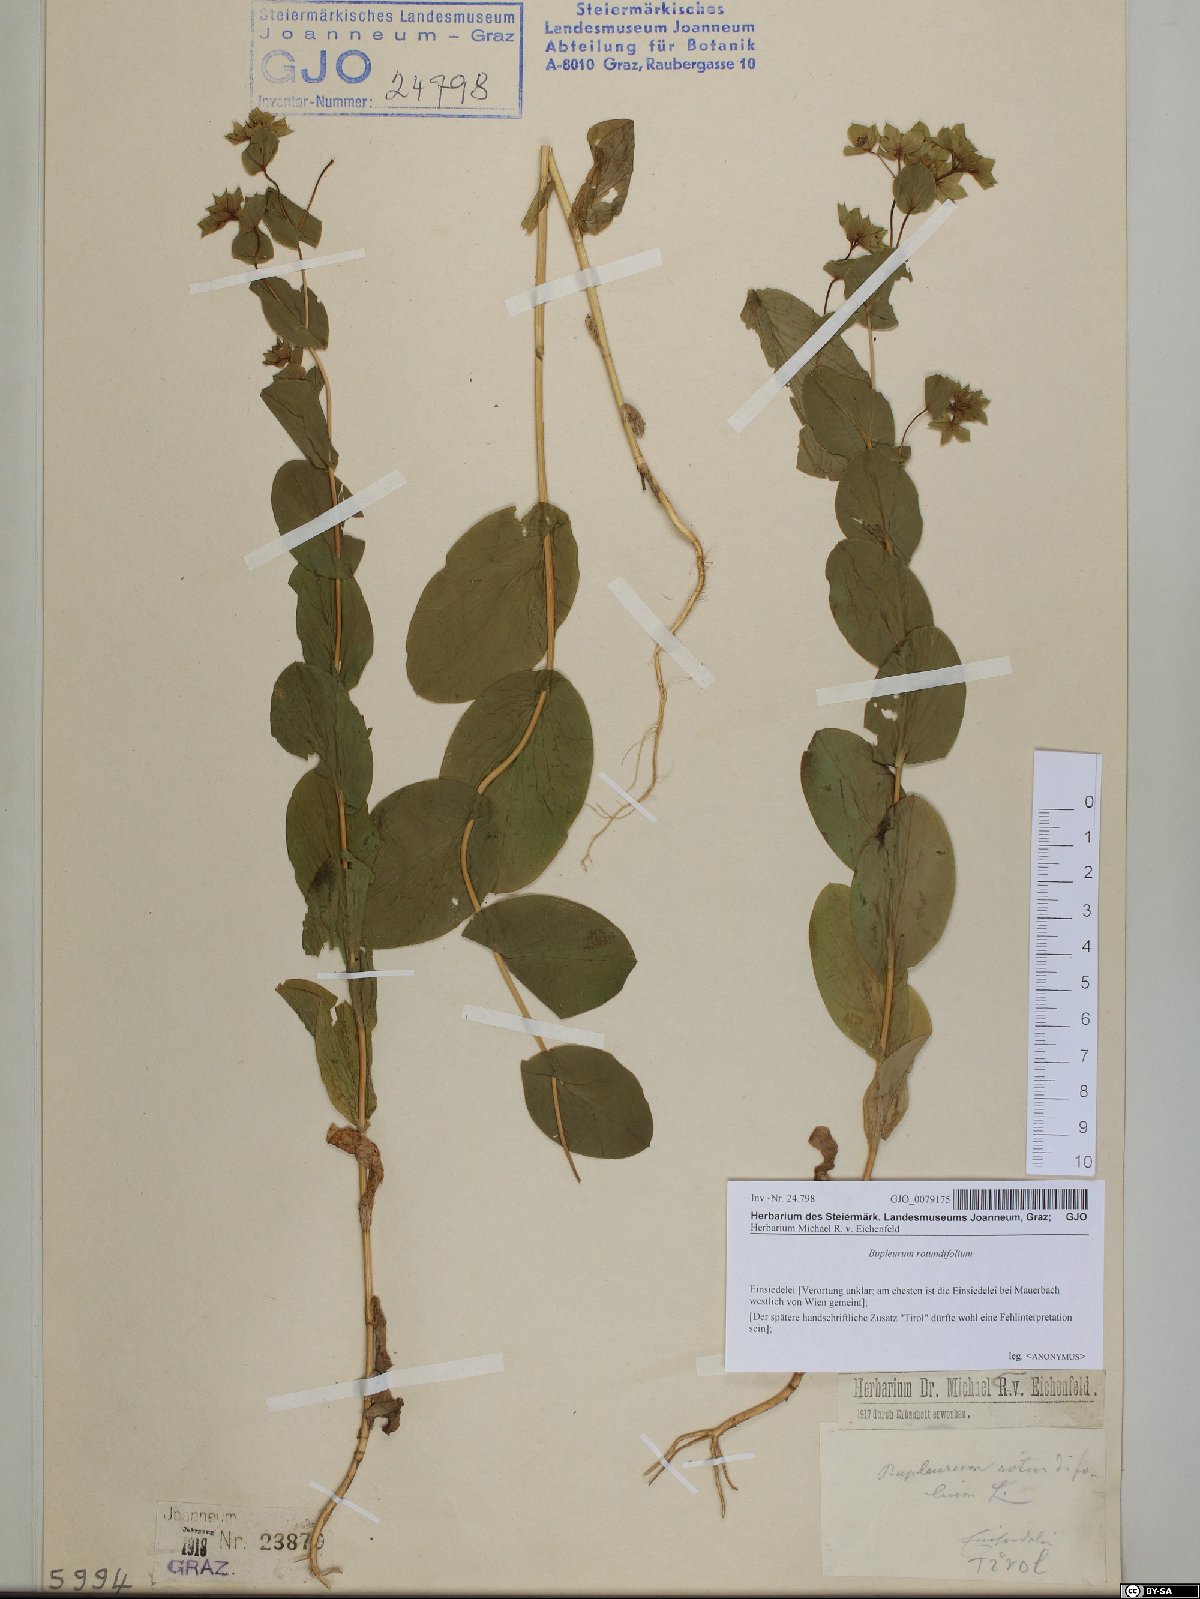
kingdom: Plantae
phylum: Tracheophyta
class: Magnoliopsida
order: Apiales
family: Apiaceae
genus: Bupleurum
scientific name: Bupleurum rotundifolium
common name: Thorow-wax
